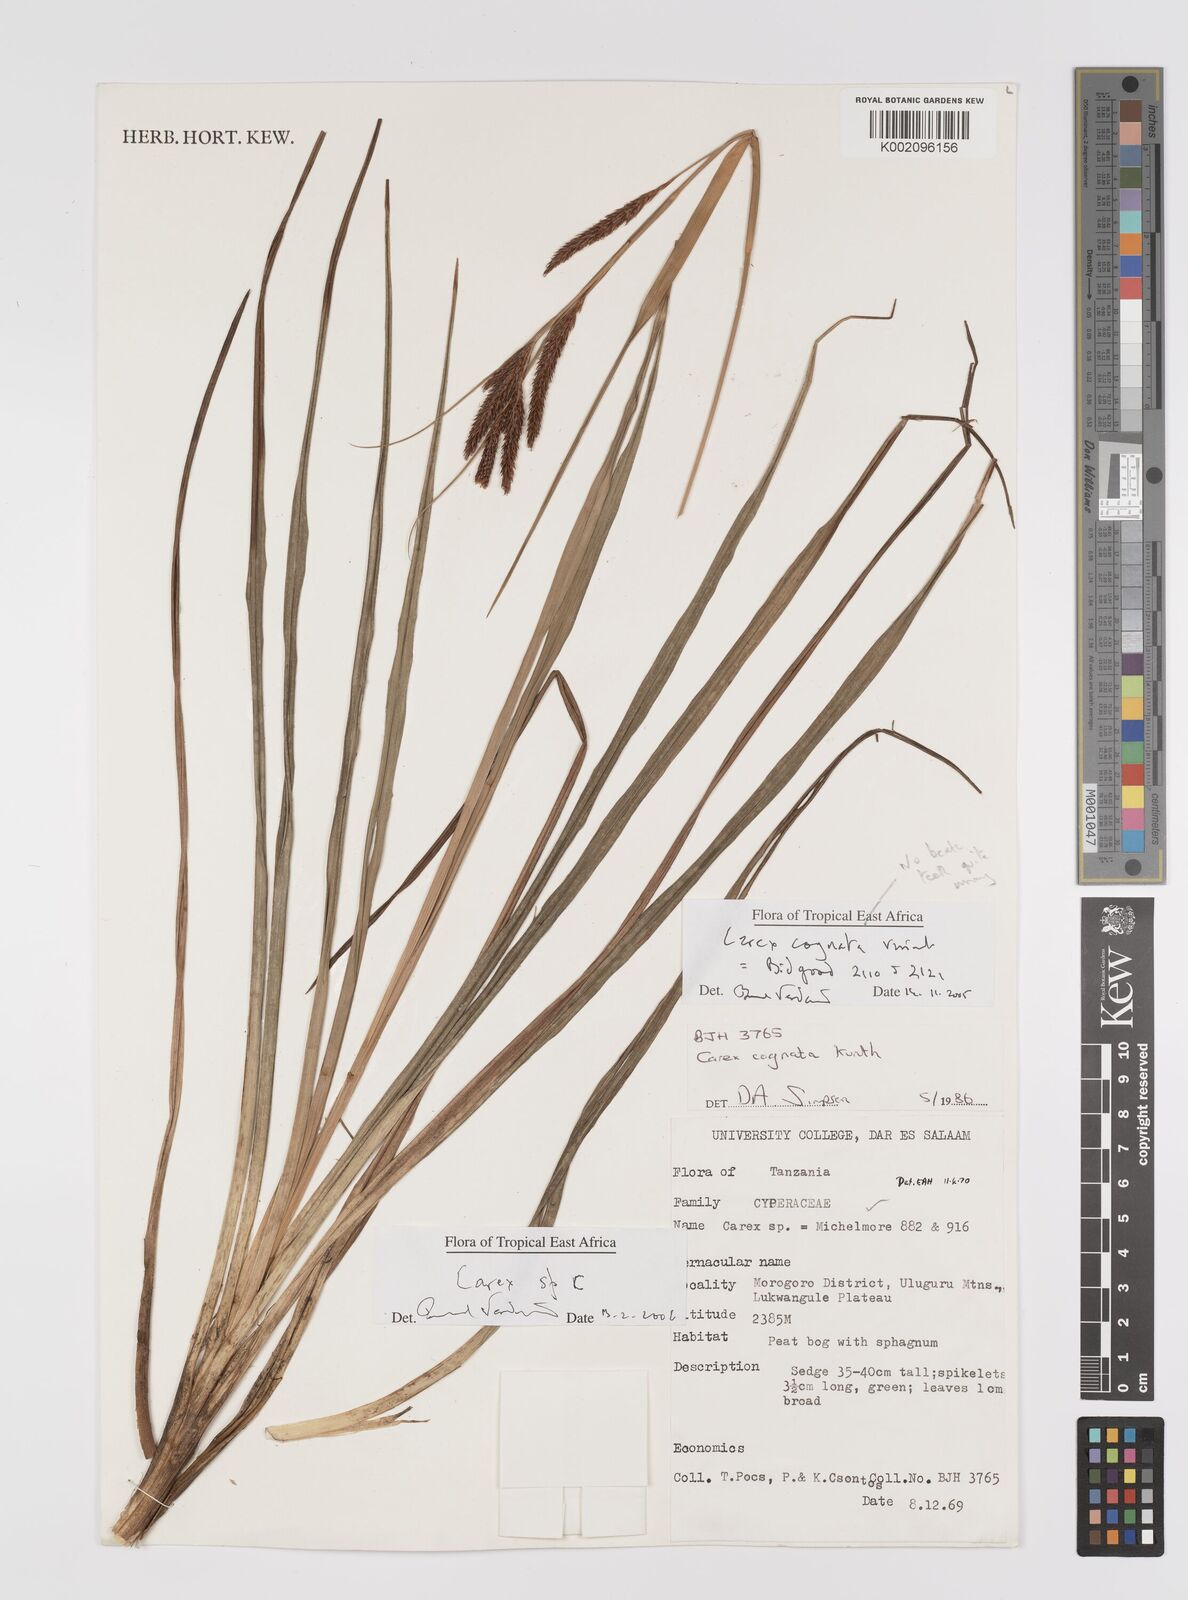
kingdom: Plantae
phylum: Tracheophyta
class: Liliopsida
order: Poales
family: Cyperaceae
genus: Carex
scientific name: Carex
